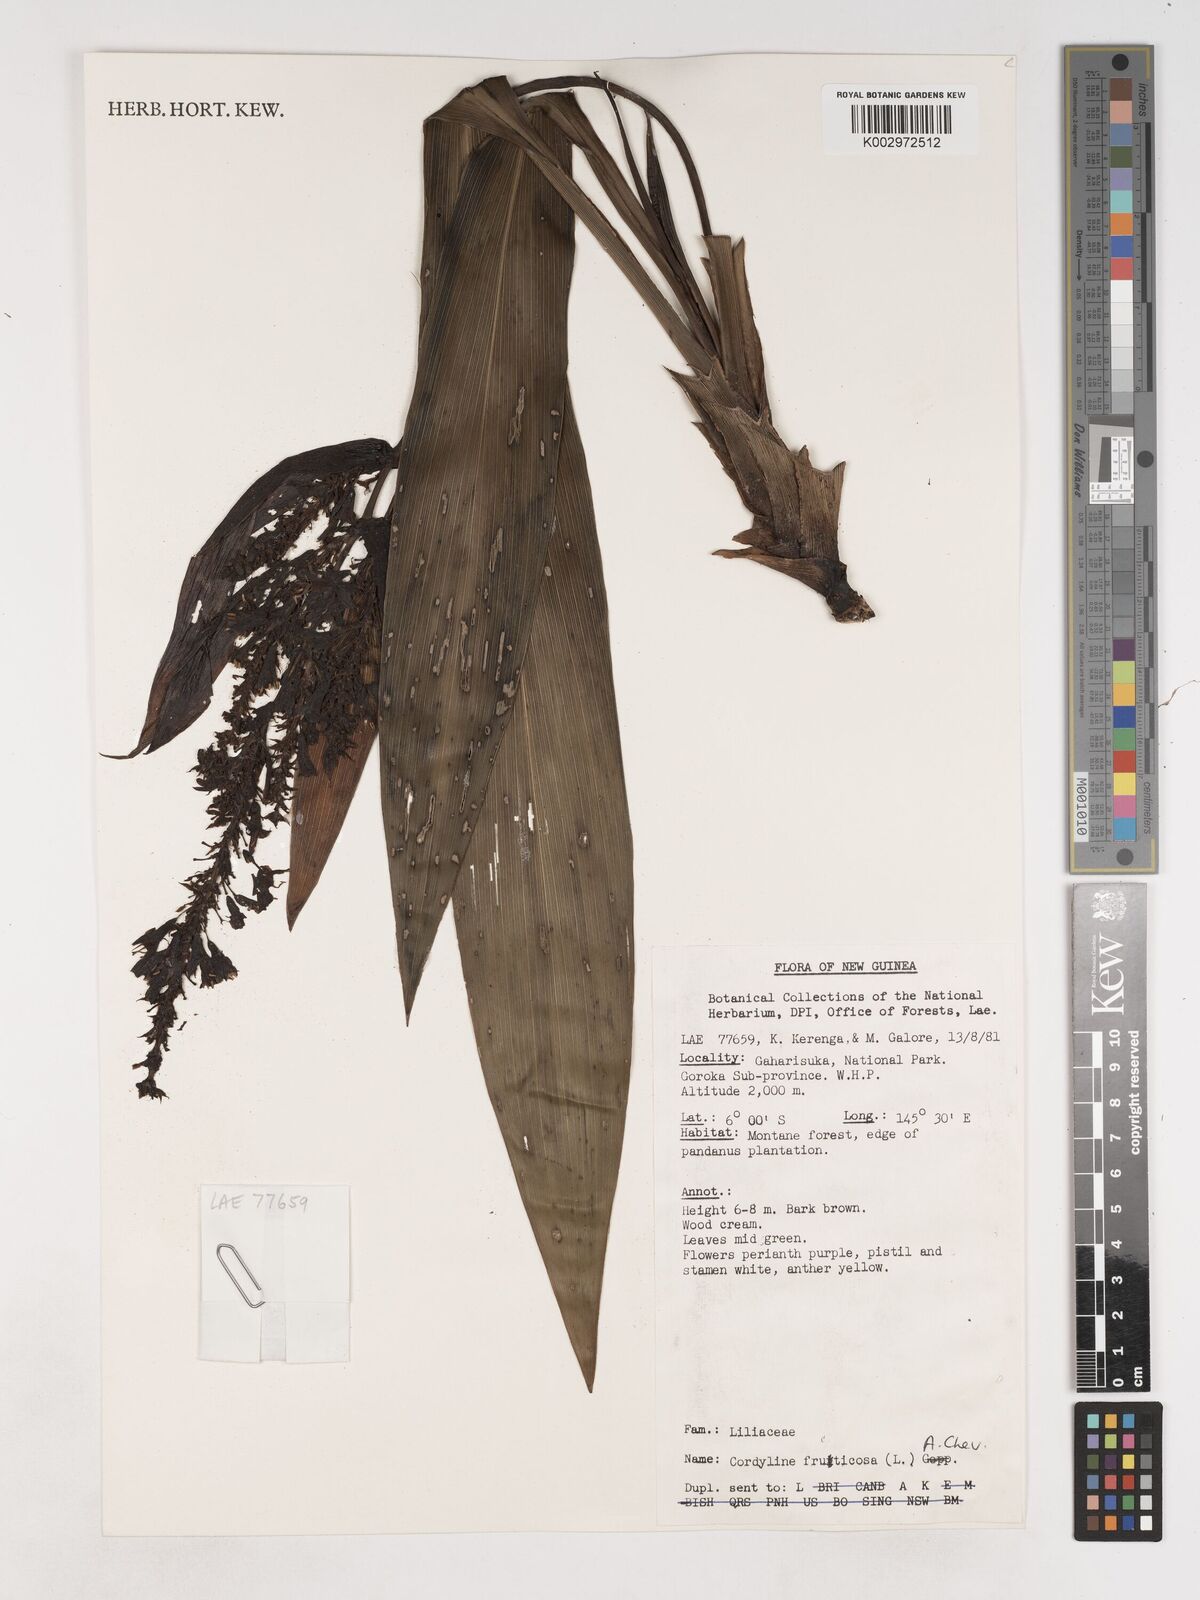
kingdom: Plantae
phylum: Tracheophyta
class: Liliopsida
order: Asparagales
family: Asparagaceae
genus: Cordyline
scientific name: Cordyline
